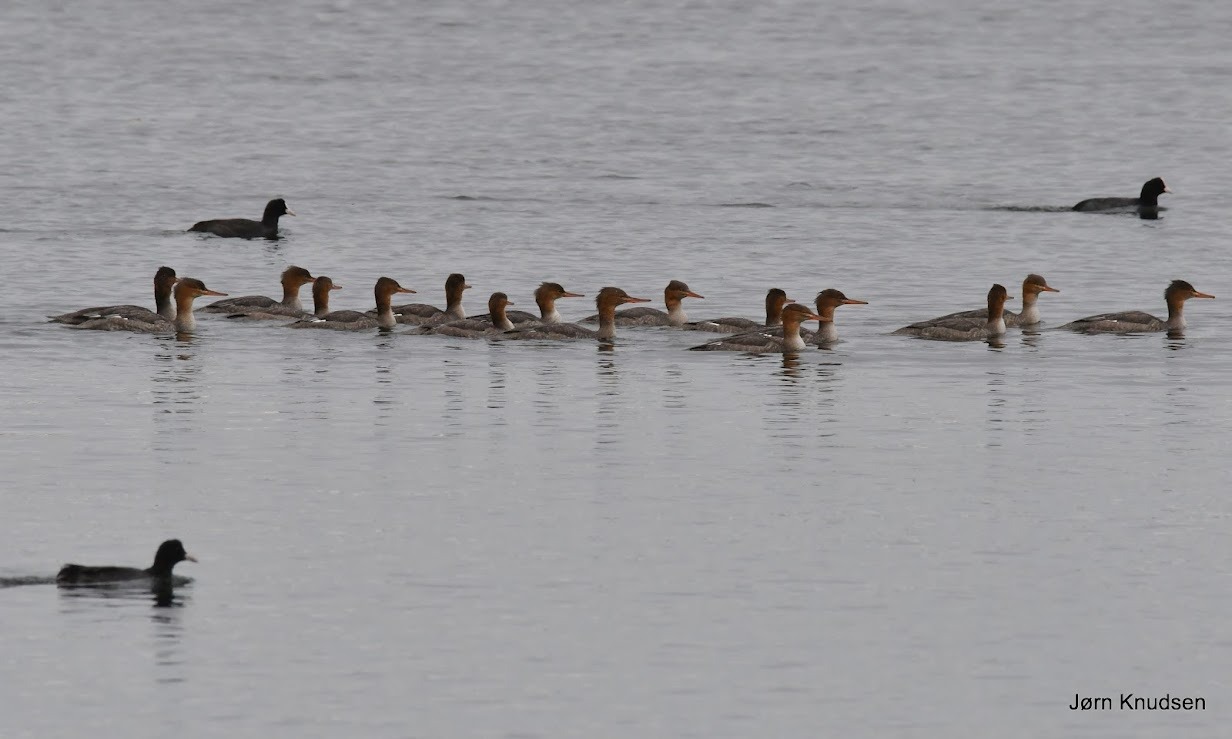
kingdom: Animalia
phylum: Chordata
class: Aves
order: Anseriformes
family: Anatidae
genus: Mergus
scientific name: Mergus serrator
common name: Toppet skallesluger
